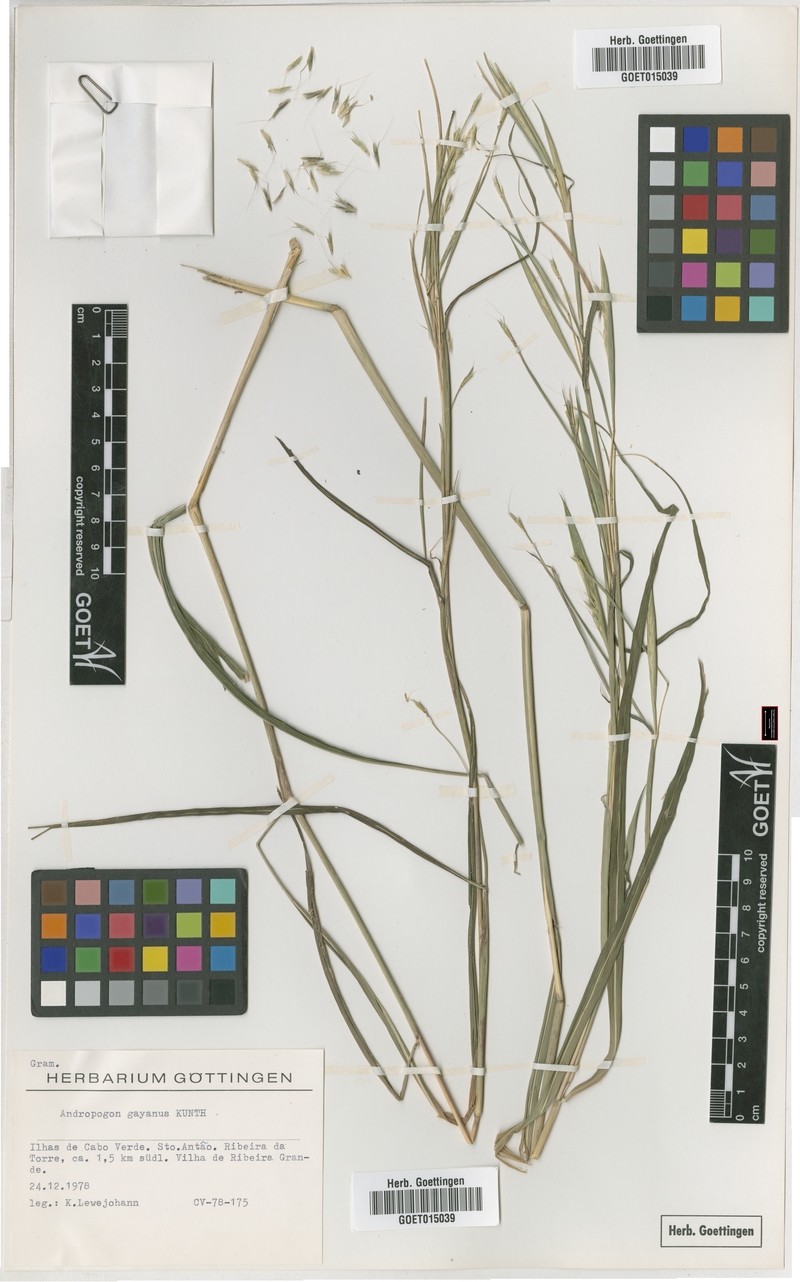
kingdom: Plantae
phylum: Tracheophyta
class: Liliopsida
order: Poales
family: Poaceae
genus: Andropogon
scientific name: Andropogon gayanus
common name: Tambuki grass
